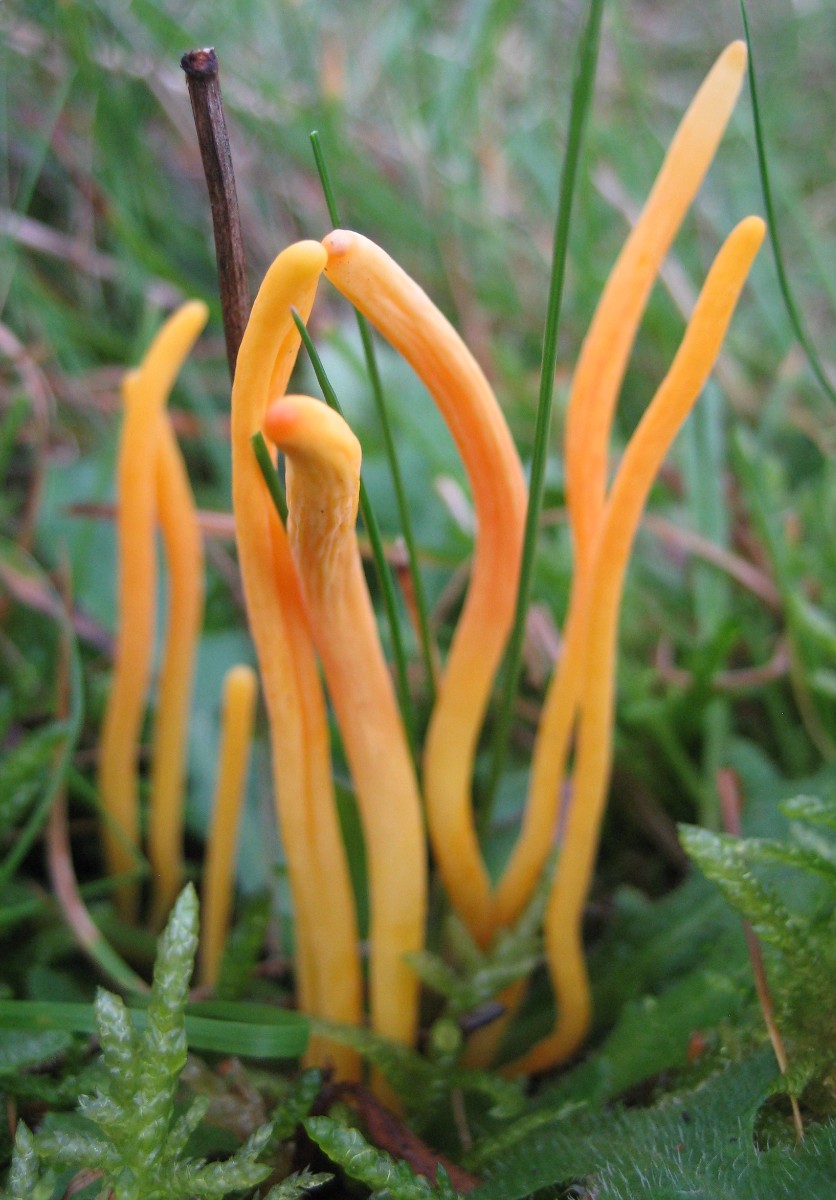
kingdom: Fungi
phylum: Basidiomycota
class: Agaricomycetes
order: Agaricales
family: Clavariaceae
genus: Clavulinopsis
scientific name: Clavulinopsis
